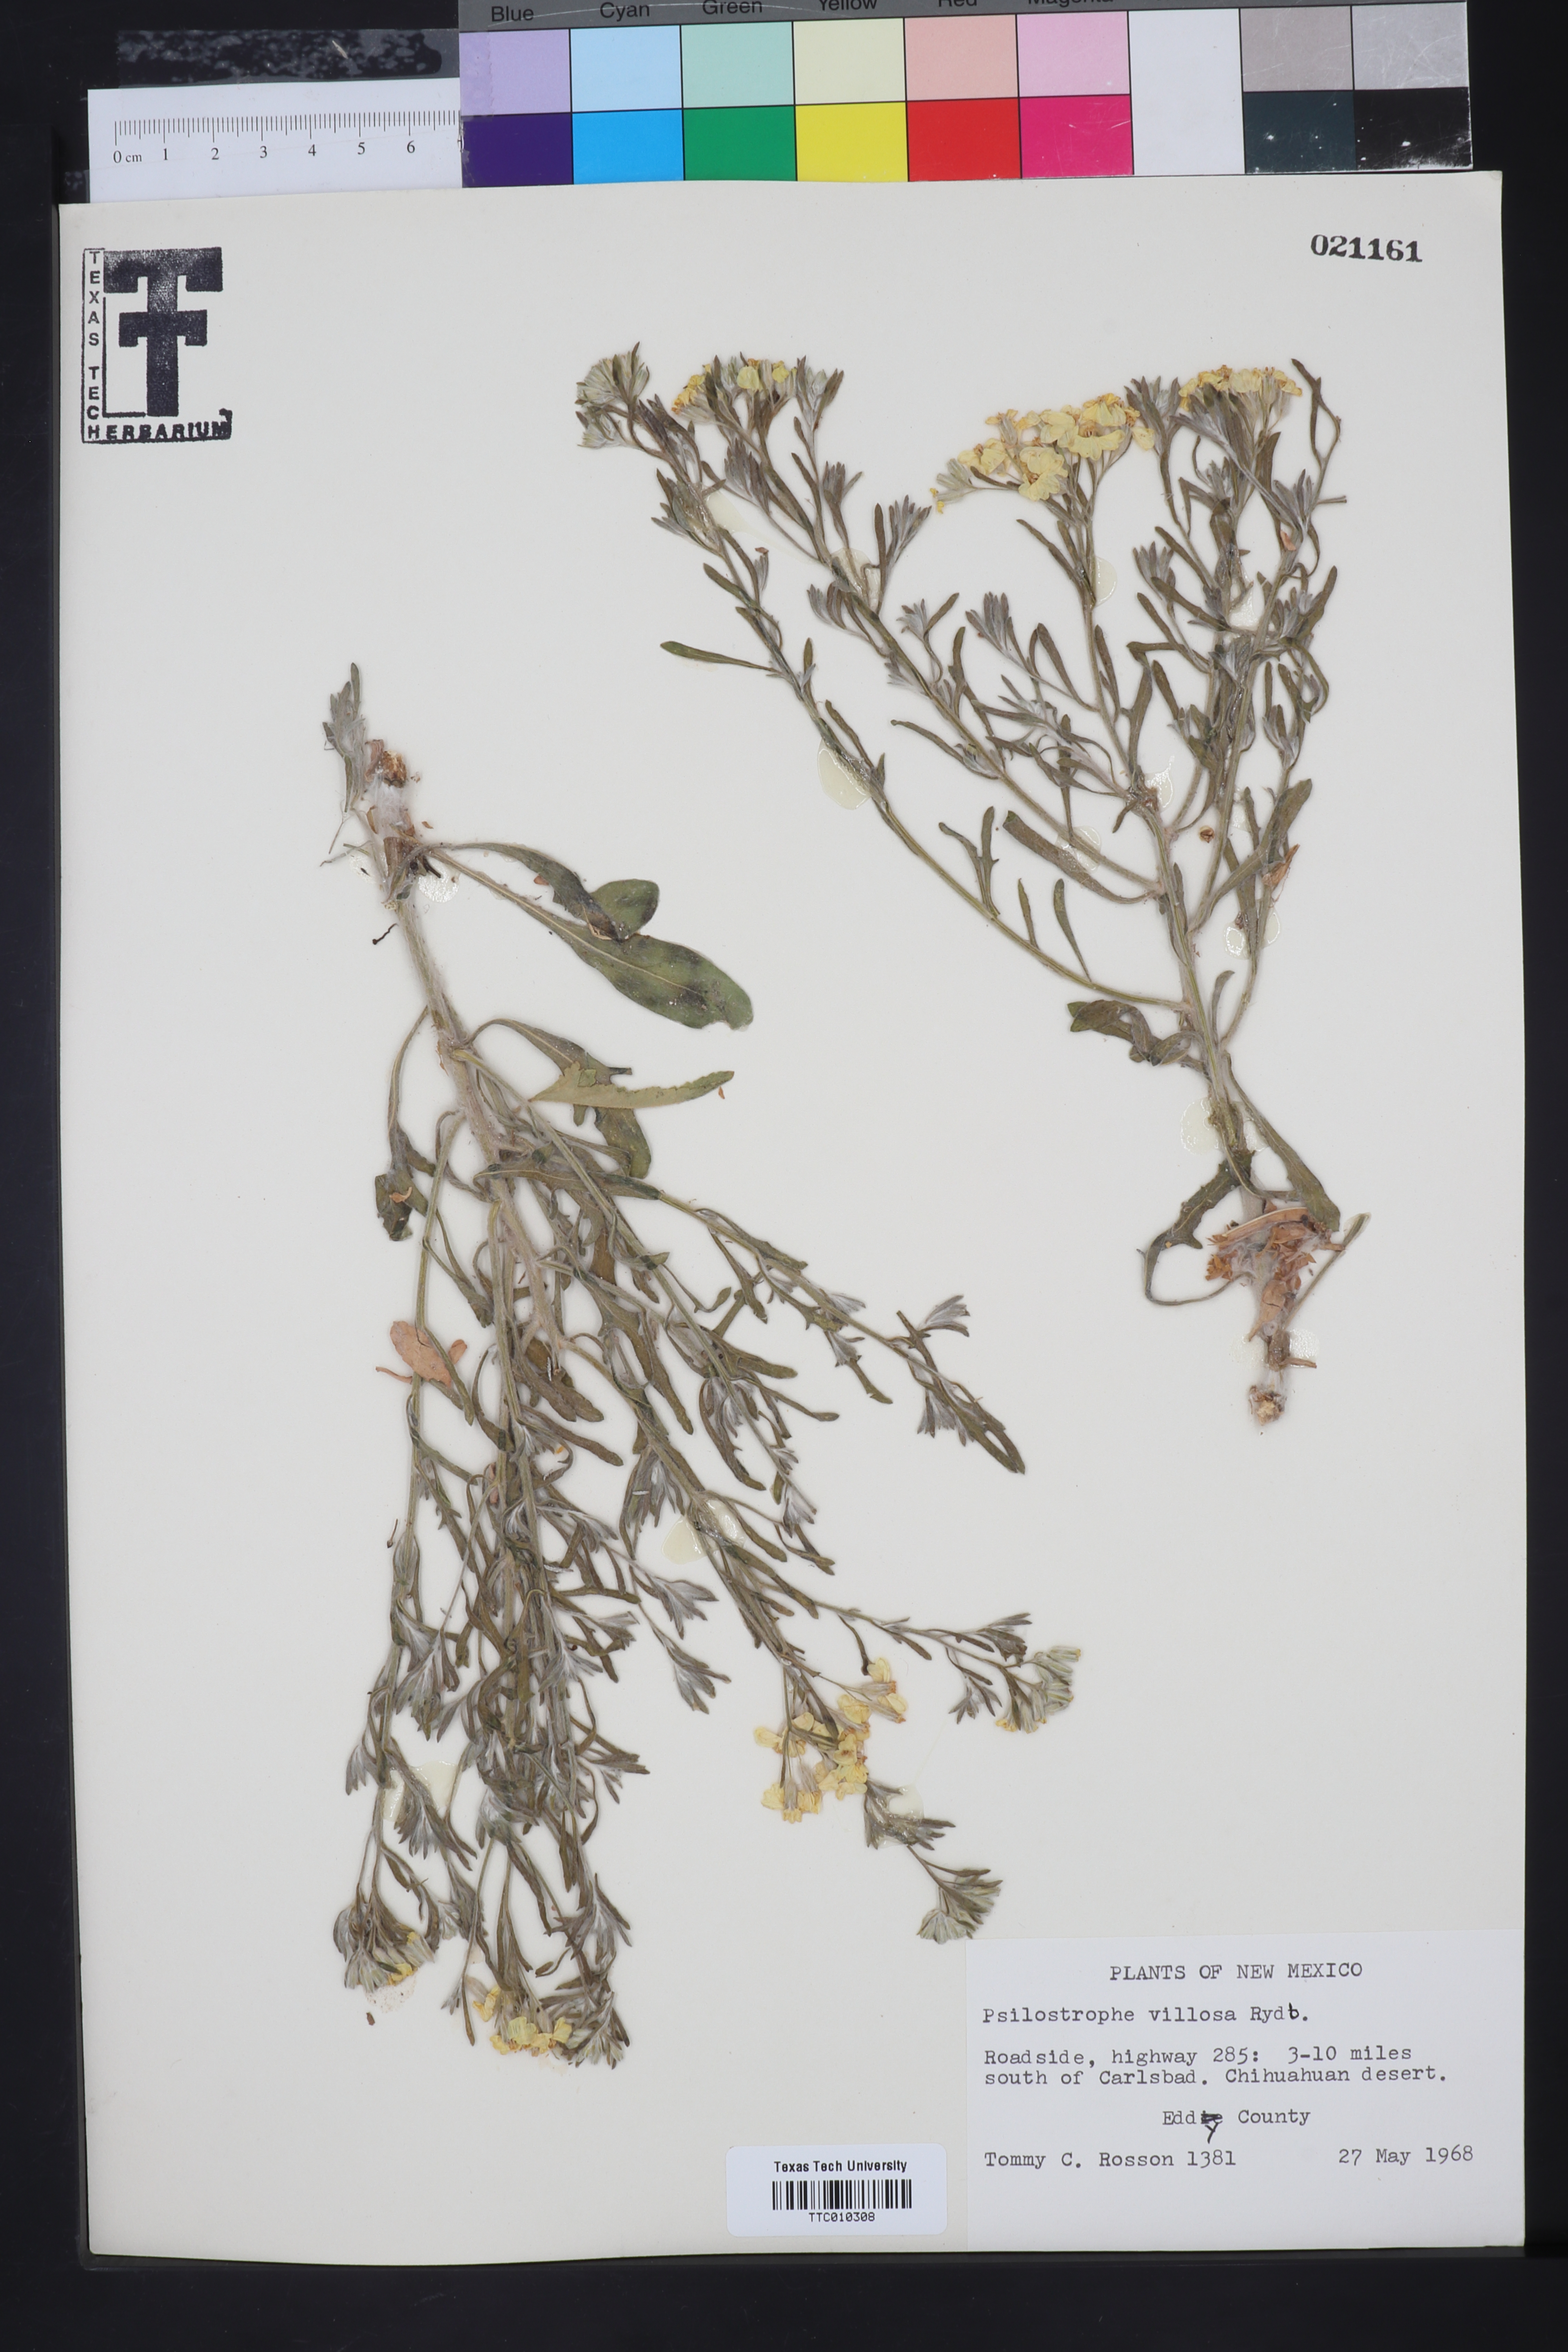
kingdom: Plantae
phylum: Tracheophyta
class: Magnoliopsida
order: Asterales
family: Asteraceae
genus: Psilostrophe
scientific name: Psilostrophe villosa
